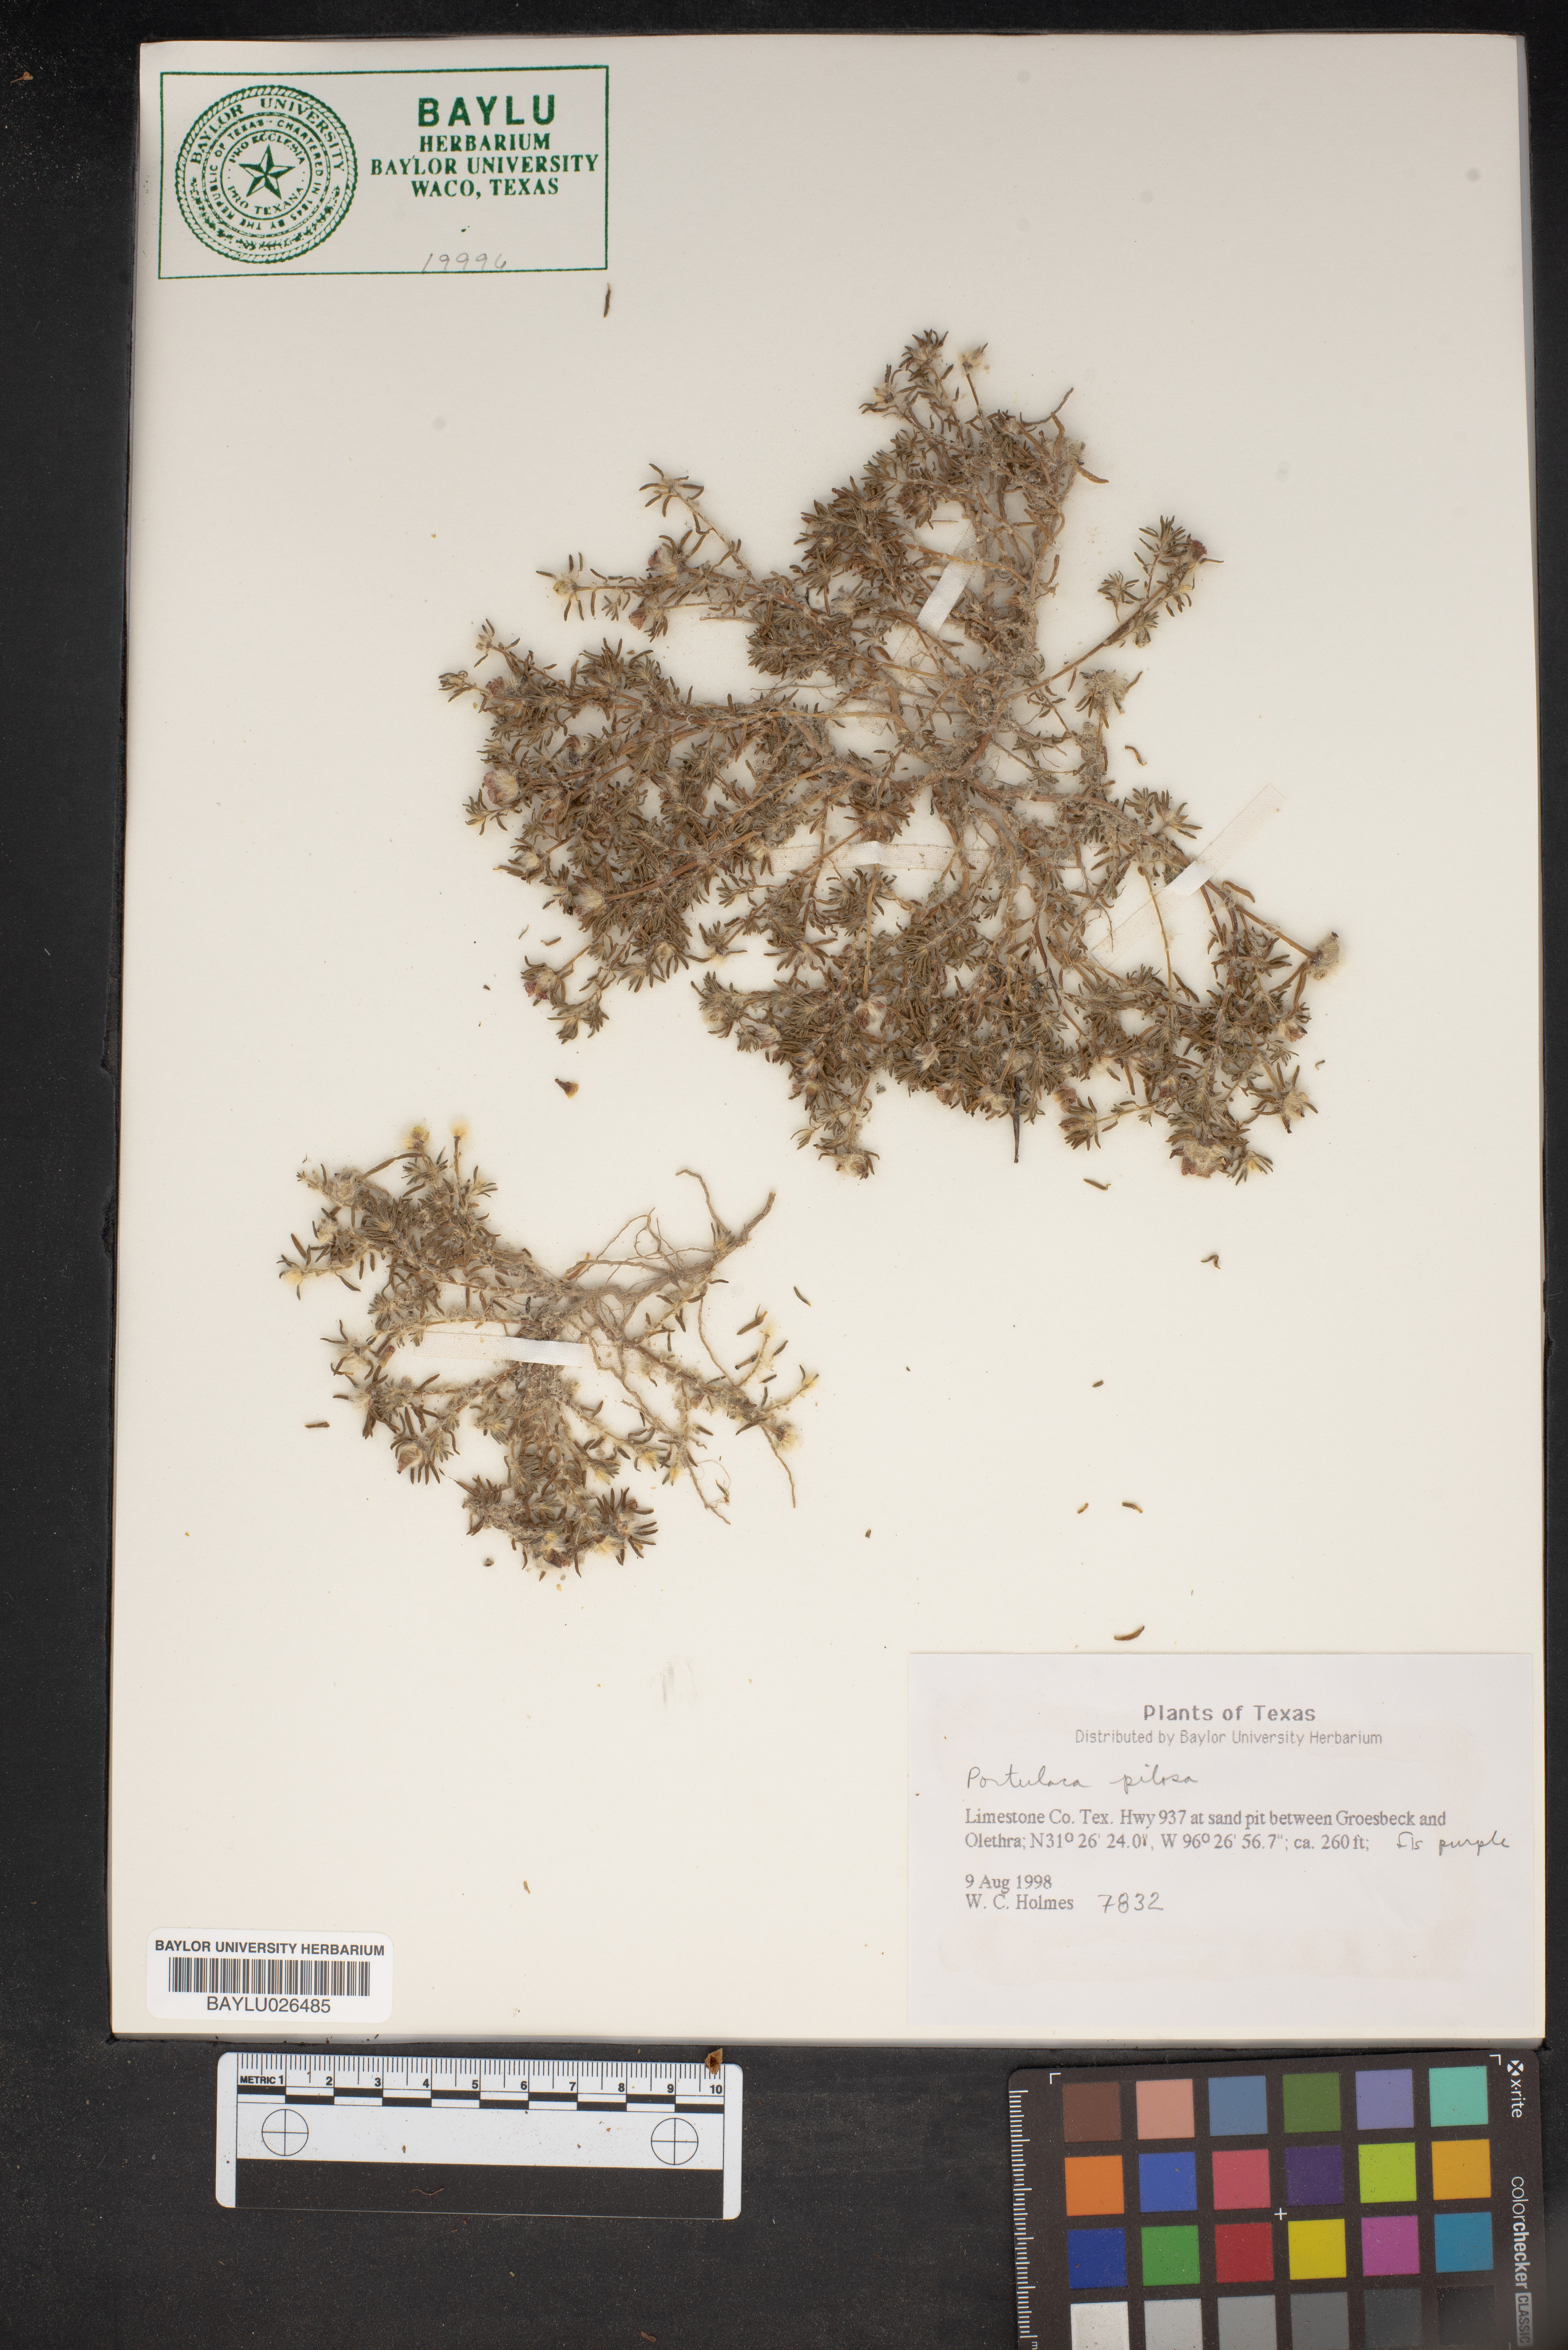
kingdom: Plantae
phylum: Tracheophyta
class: Magnoliopsida
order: Caryophyllales
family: Portulacaceae
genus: Portulaca
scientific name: Portulaca pilosa
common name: Kiss me quick
